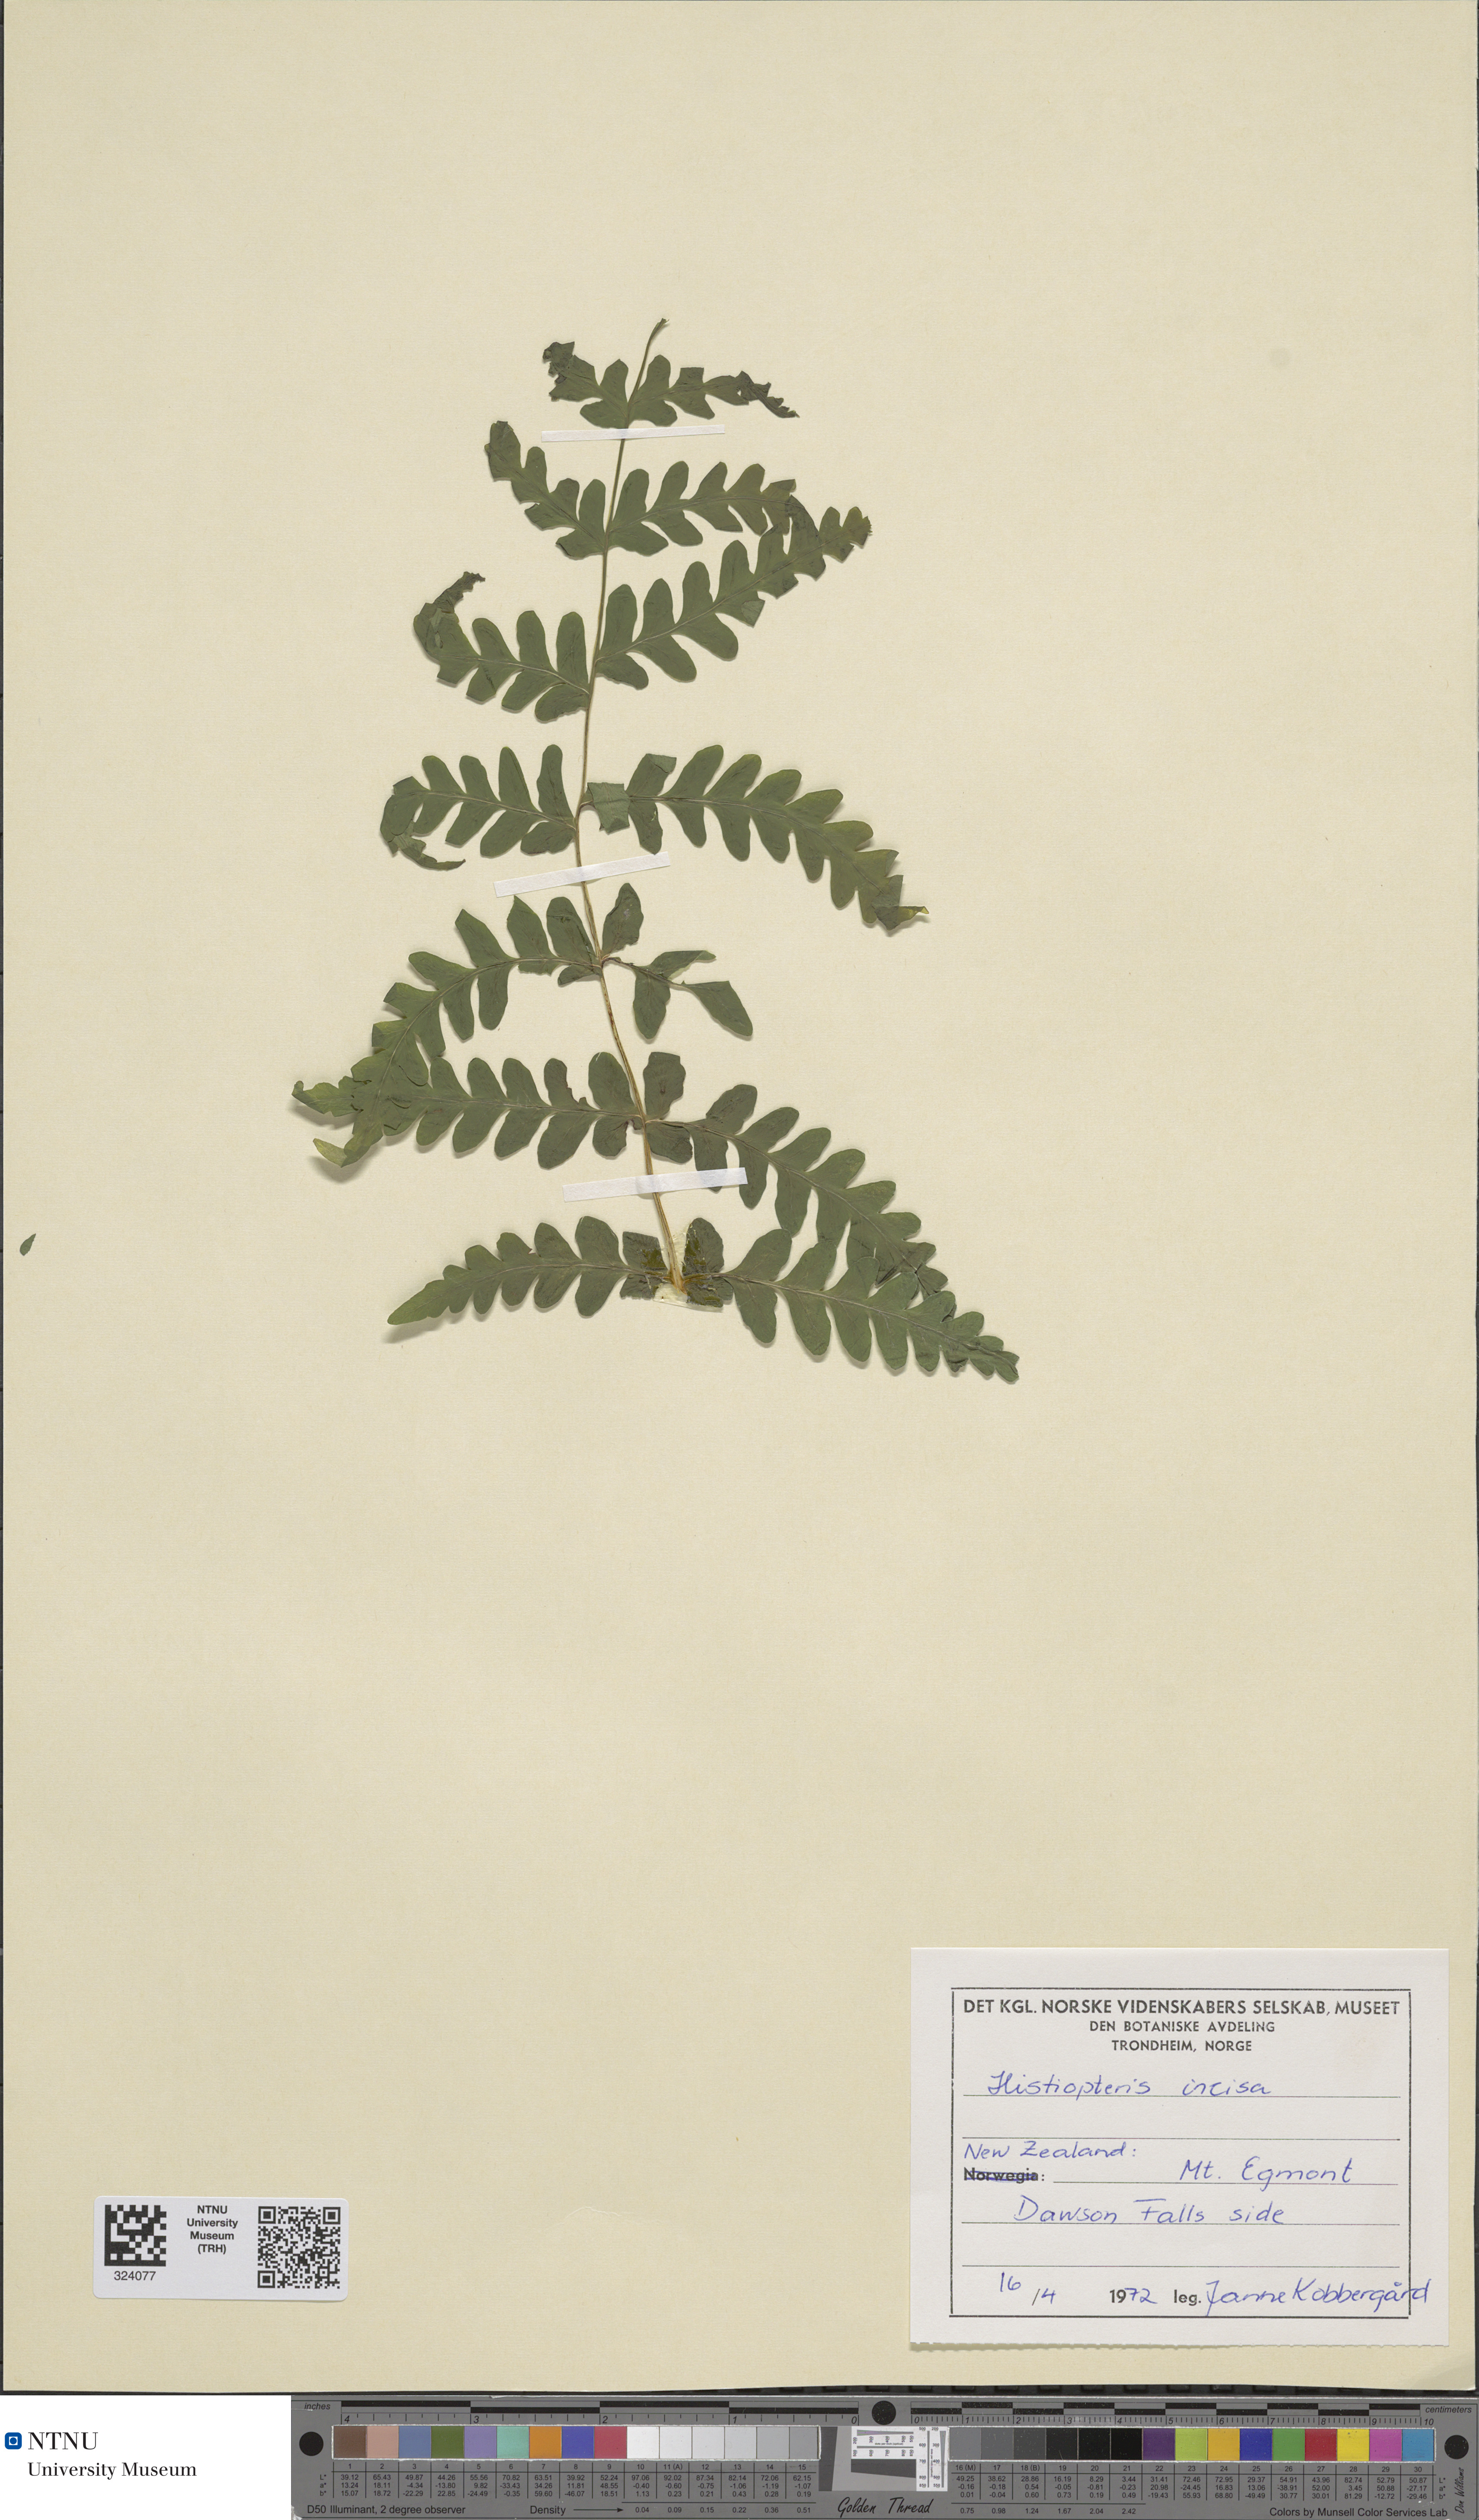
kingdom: Plantae
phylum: Tracheophyta
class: Polypodiopsida
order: Polypodiales
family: Dennstaedtiaceae
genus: Histiopteris
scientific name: Histiopteris incisa
